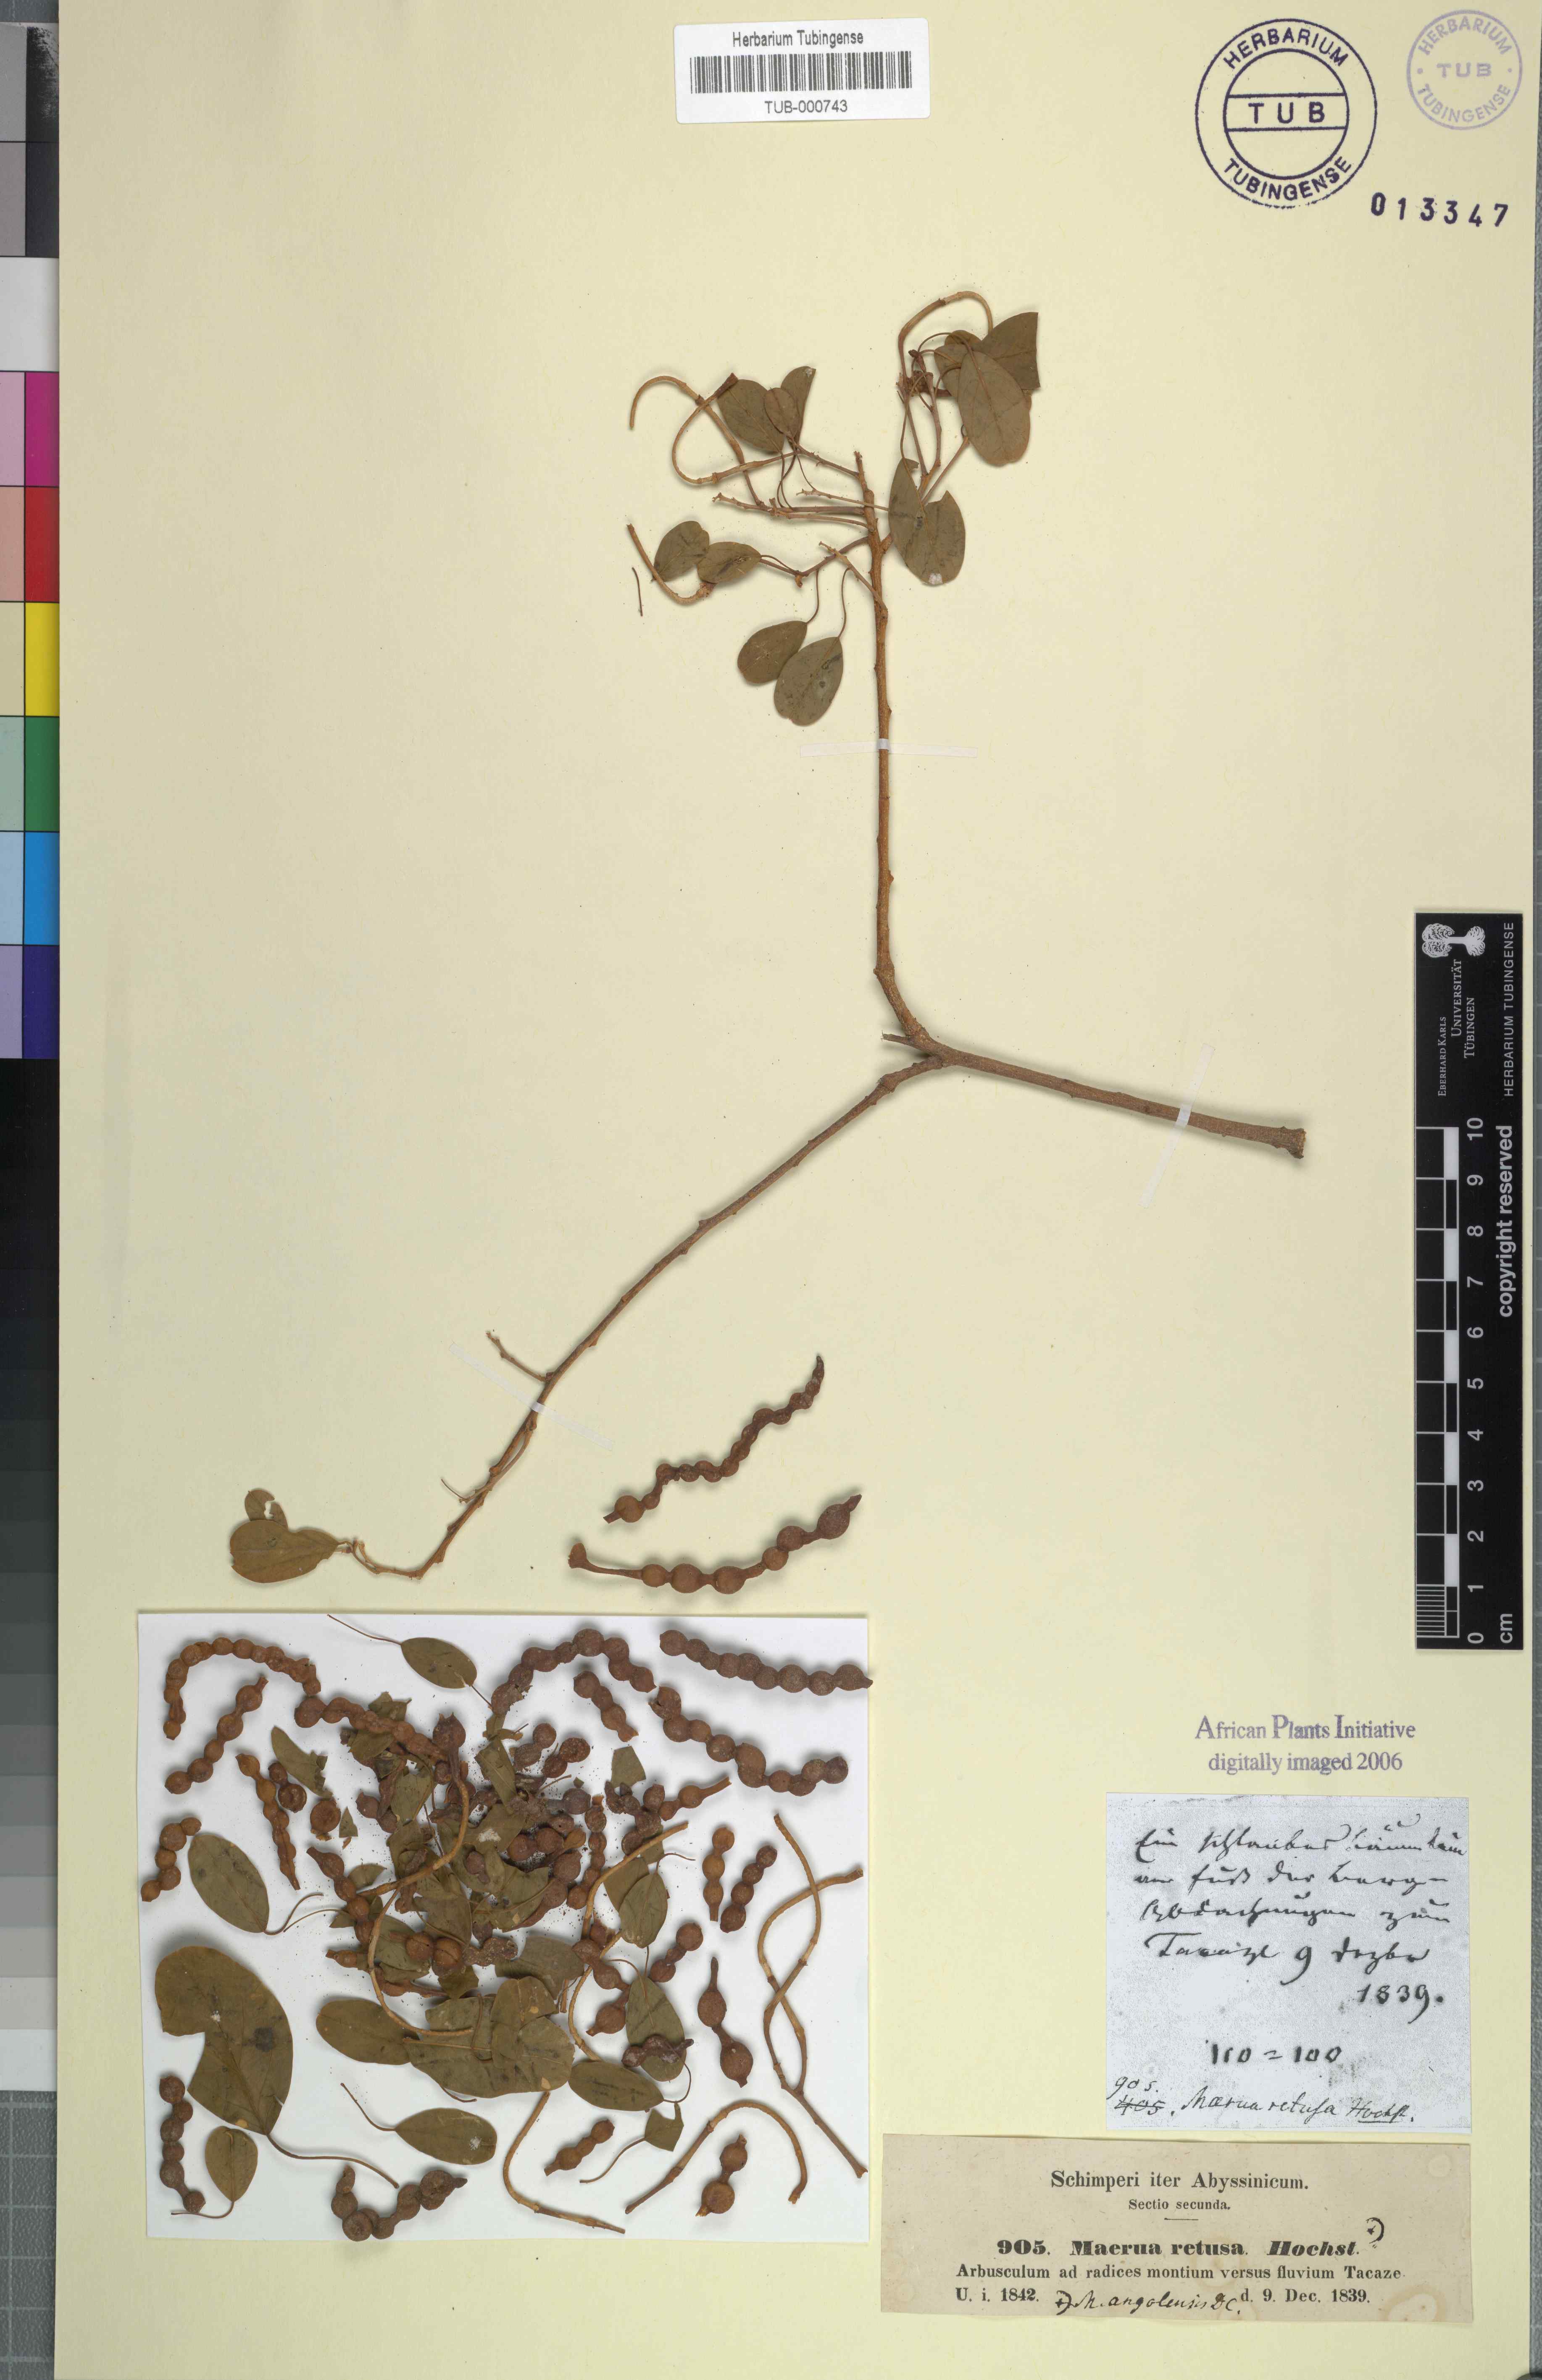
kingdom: Plantae
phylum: Tracheophyta
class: Magnoliopsida
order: Brassicales
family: Capparaceae
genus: Maerua
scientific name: Maerua angolensis
